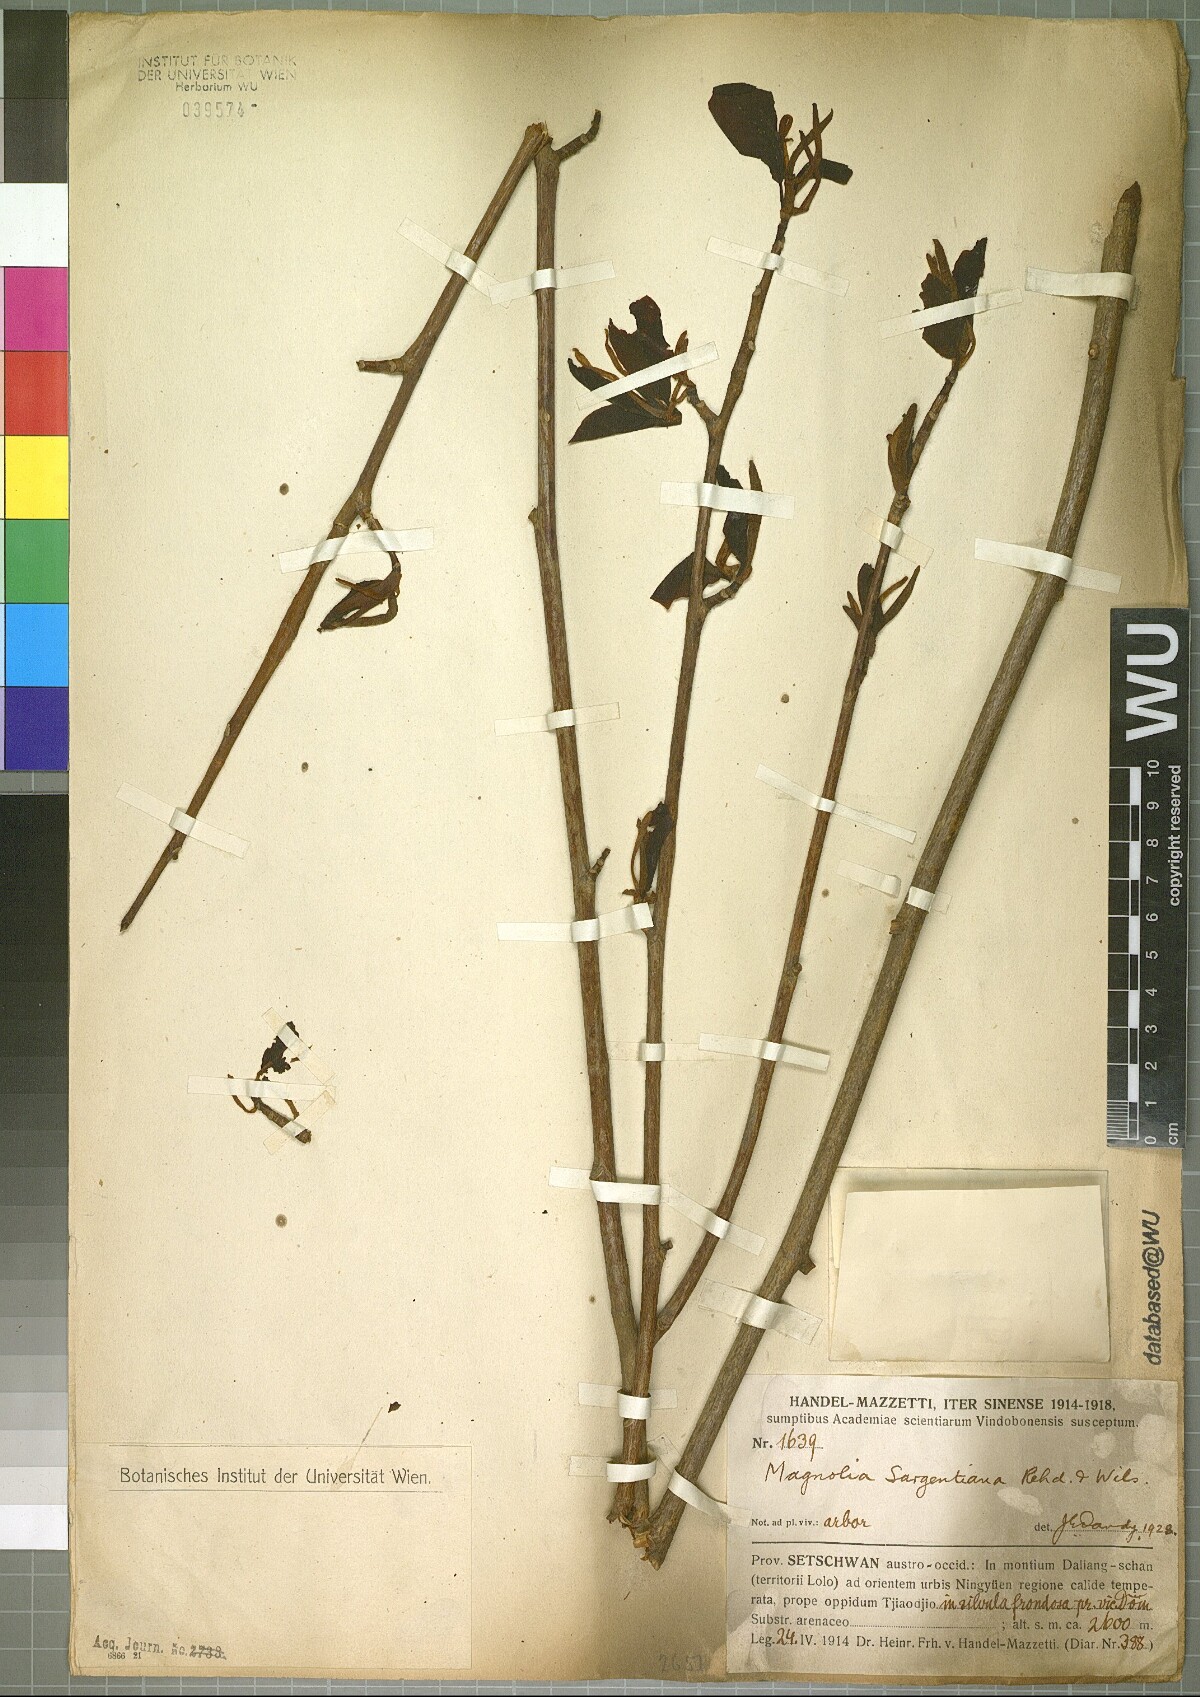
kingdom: Plantae
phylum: Tracheophyta
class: Magnoliopsida
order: Magnoliales
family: Magnoliaceae
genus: Magnolia
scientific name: Magnolia sargentiana
